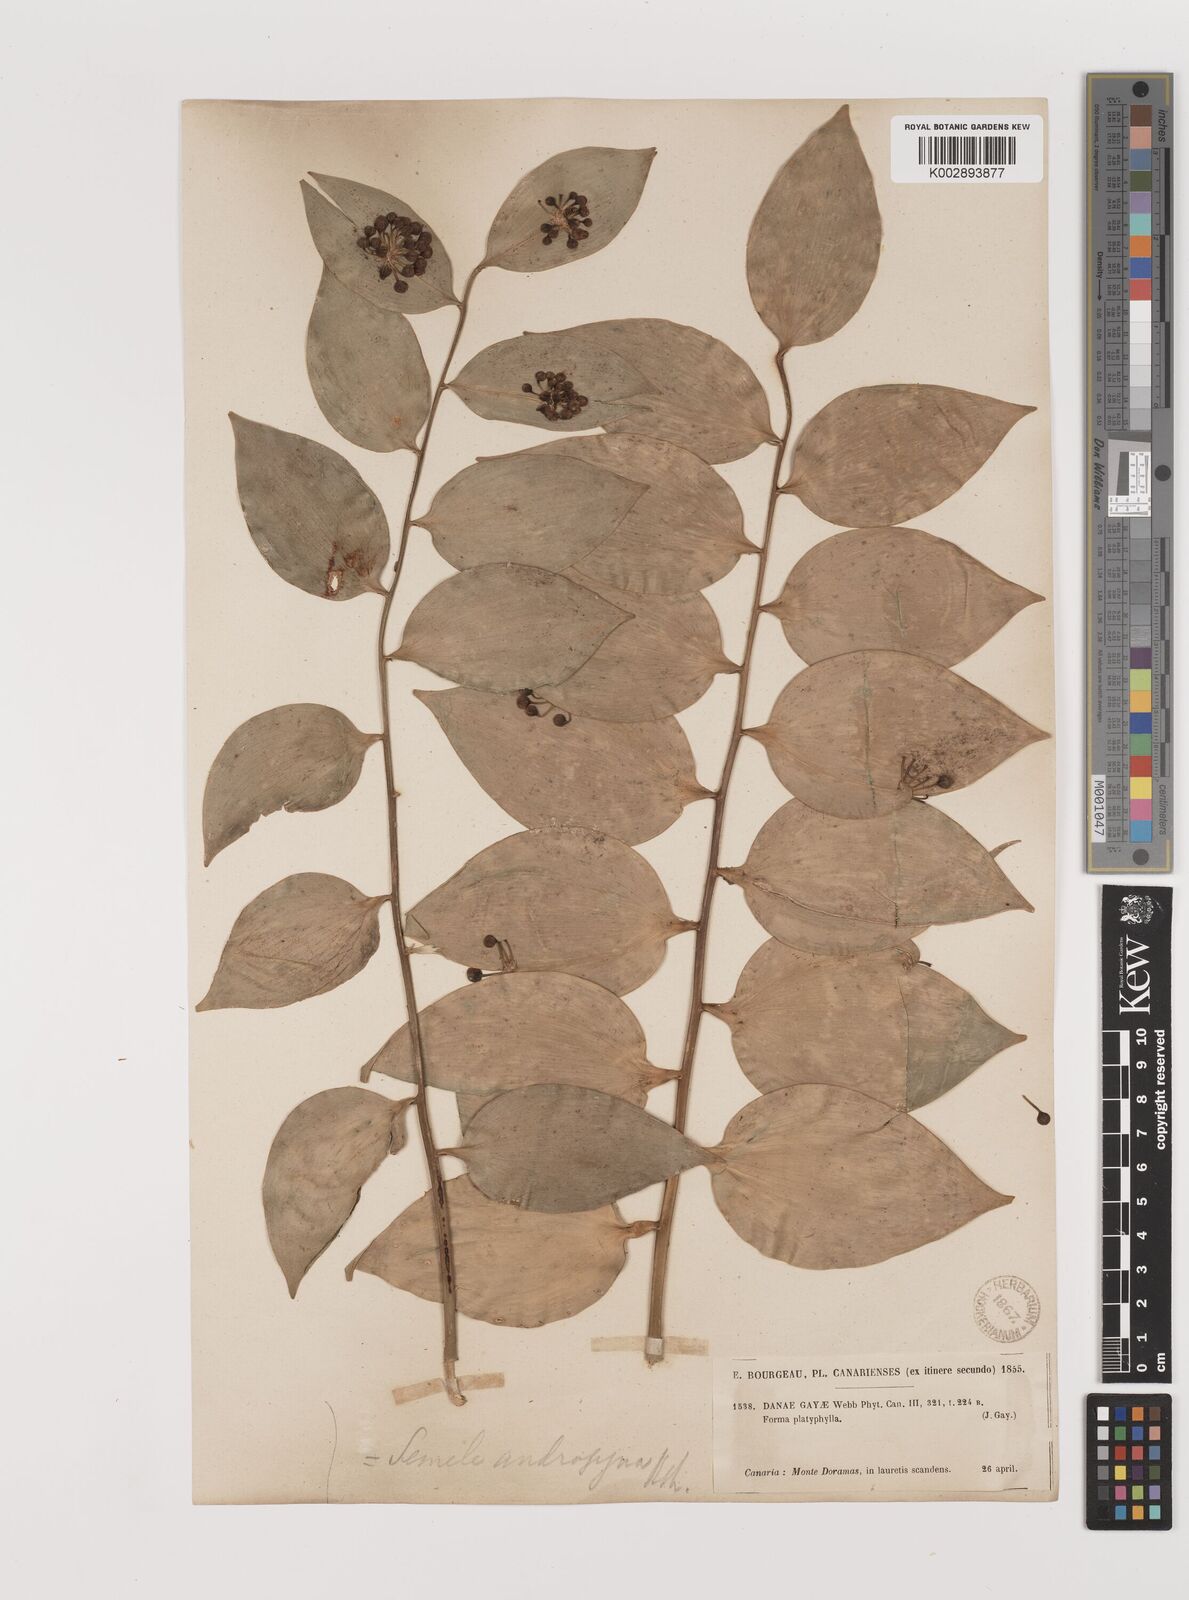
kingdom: Plantae
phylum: Tracheophyta
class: Liliopsida
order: Asparagales
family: Asparagaceae
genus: Semele
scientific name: Semele androgyna
